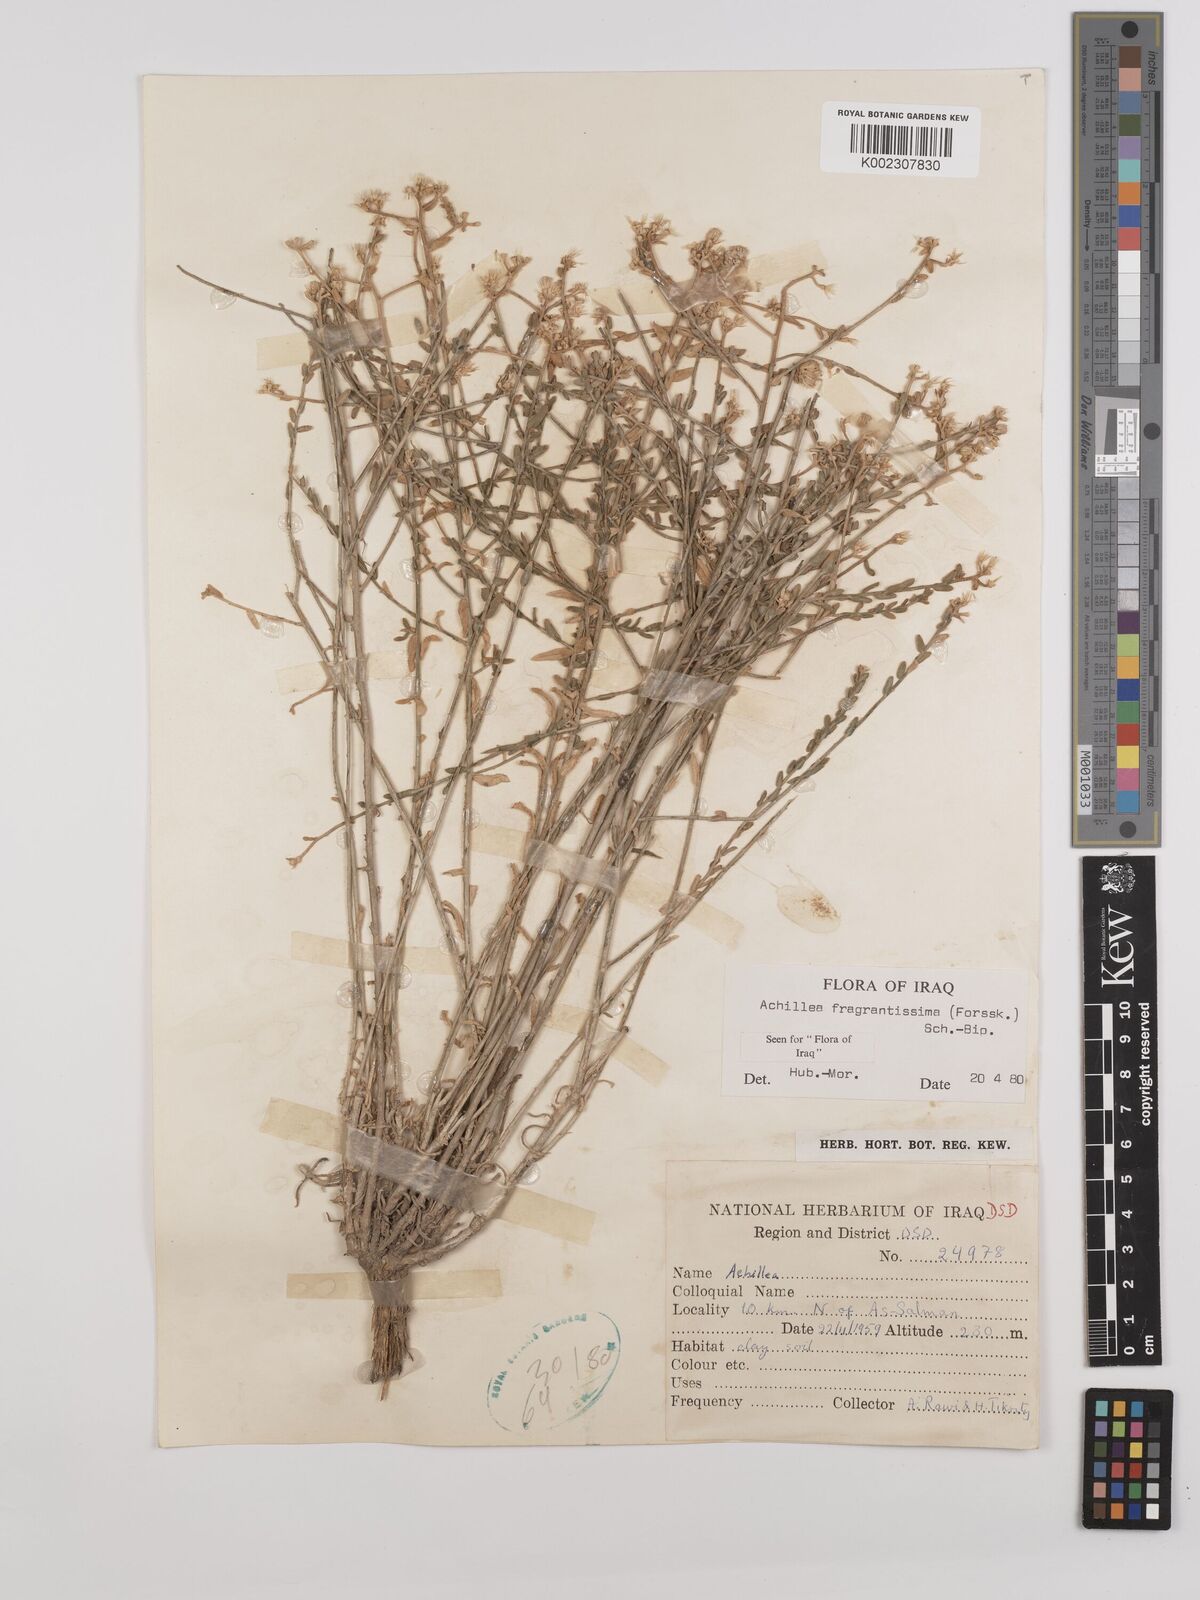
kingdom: Plantae
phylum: Tracheophyta
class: Magnoliopsida
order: Asterales
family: Asteraceae
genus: Achillea
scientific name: Achillea fragrantissima
